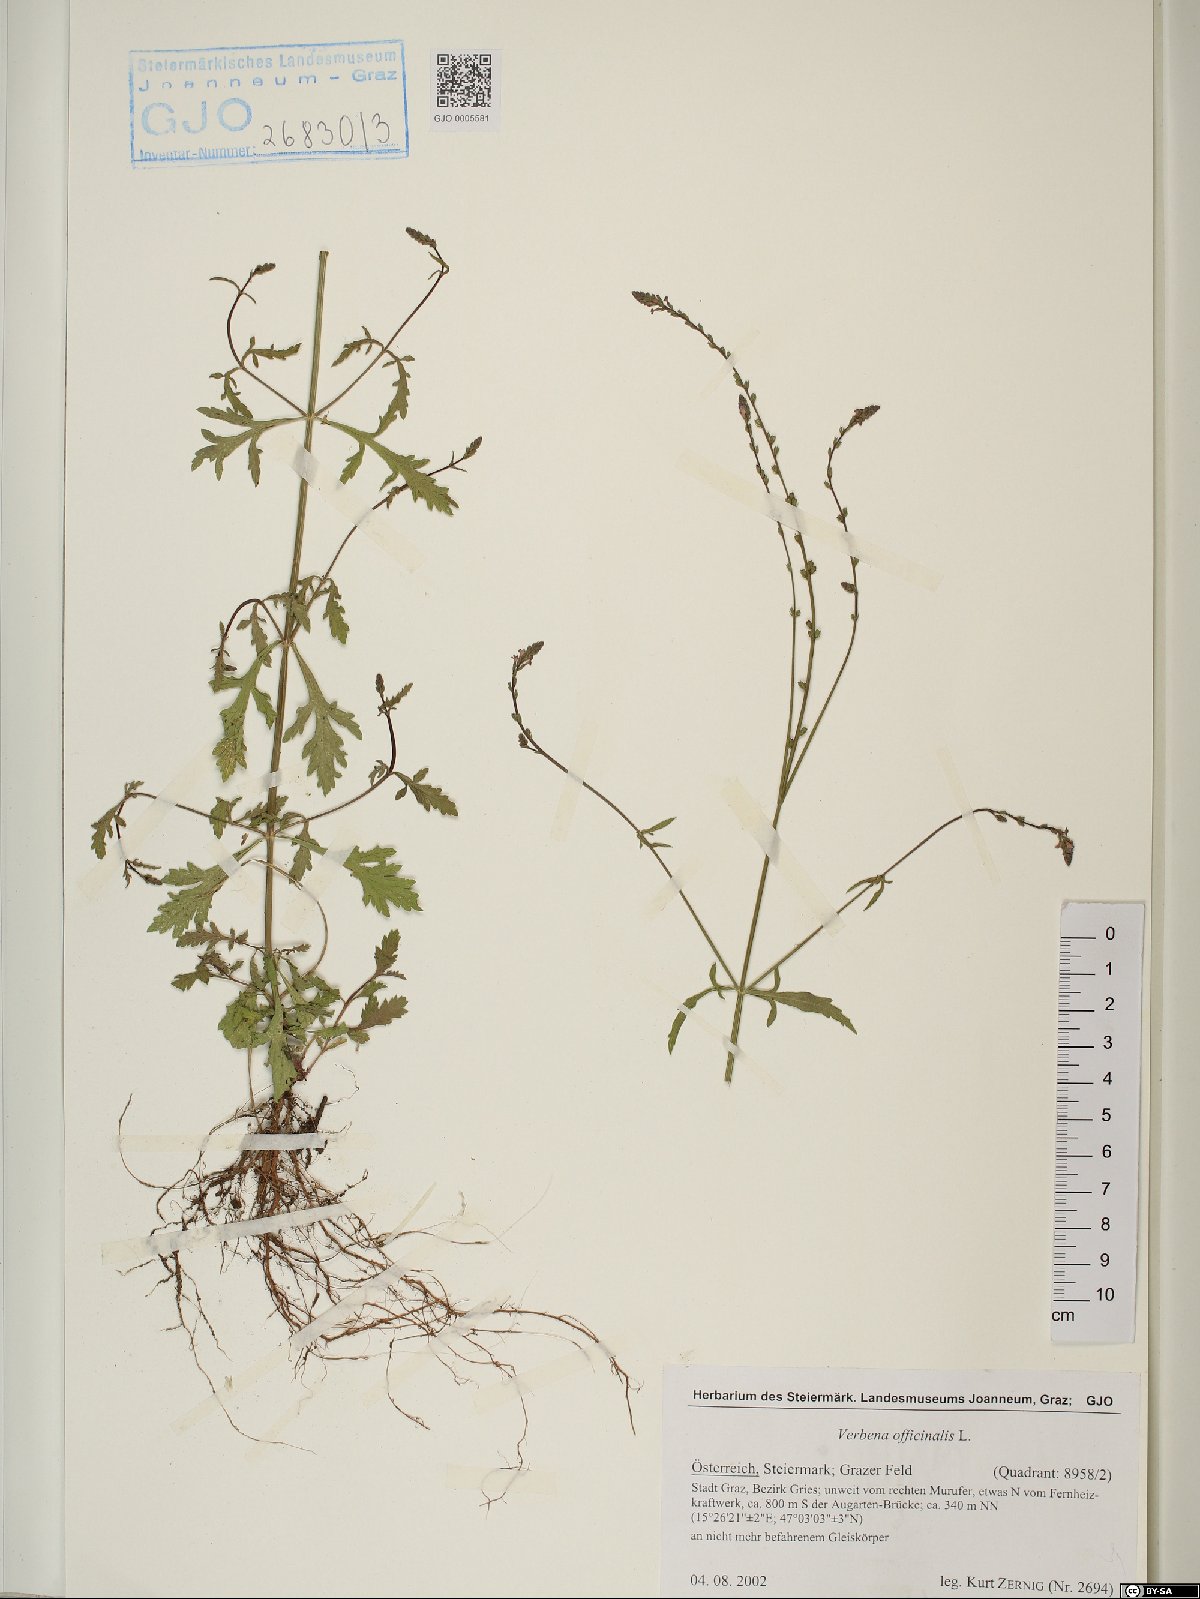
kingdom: Plantae
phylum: Tracheophyta
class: Magnoliopsida
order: Lamiales
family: Verbenaceae
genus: Verbena
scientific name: Verbena officinalis
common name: Vervain
